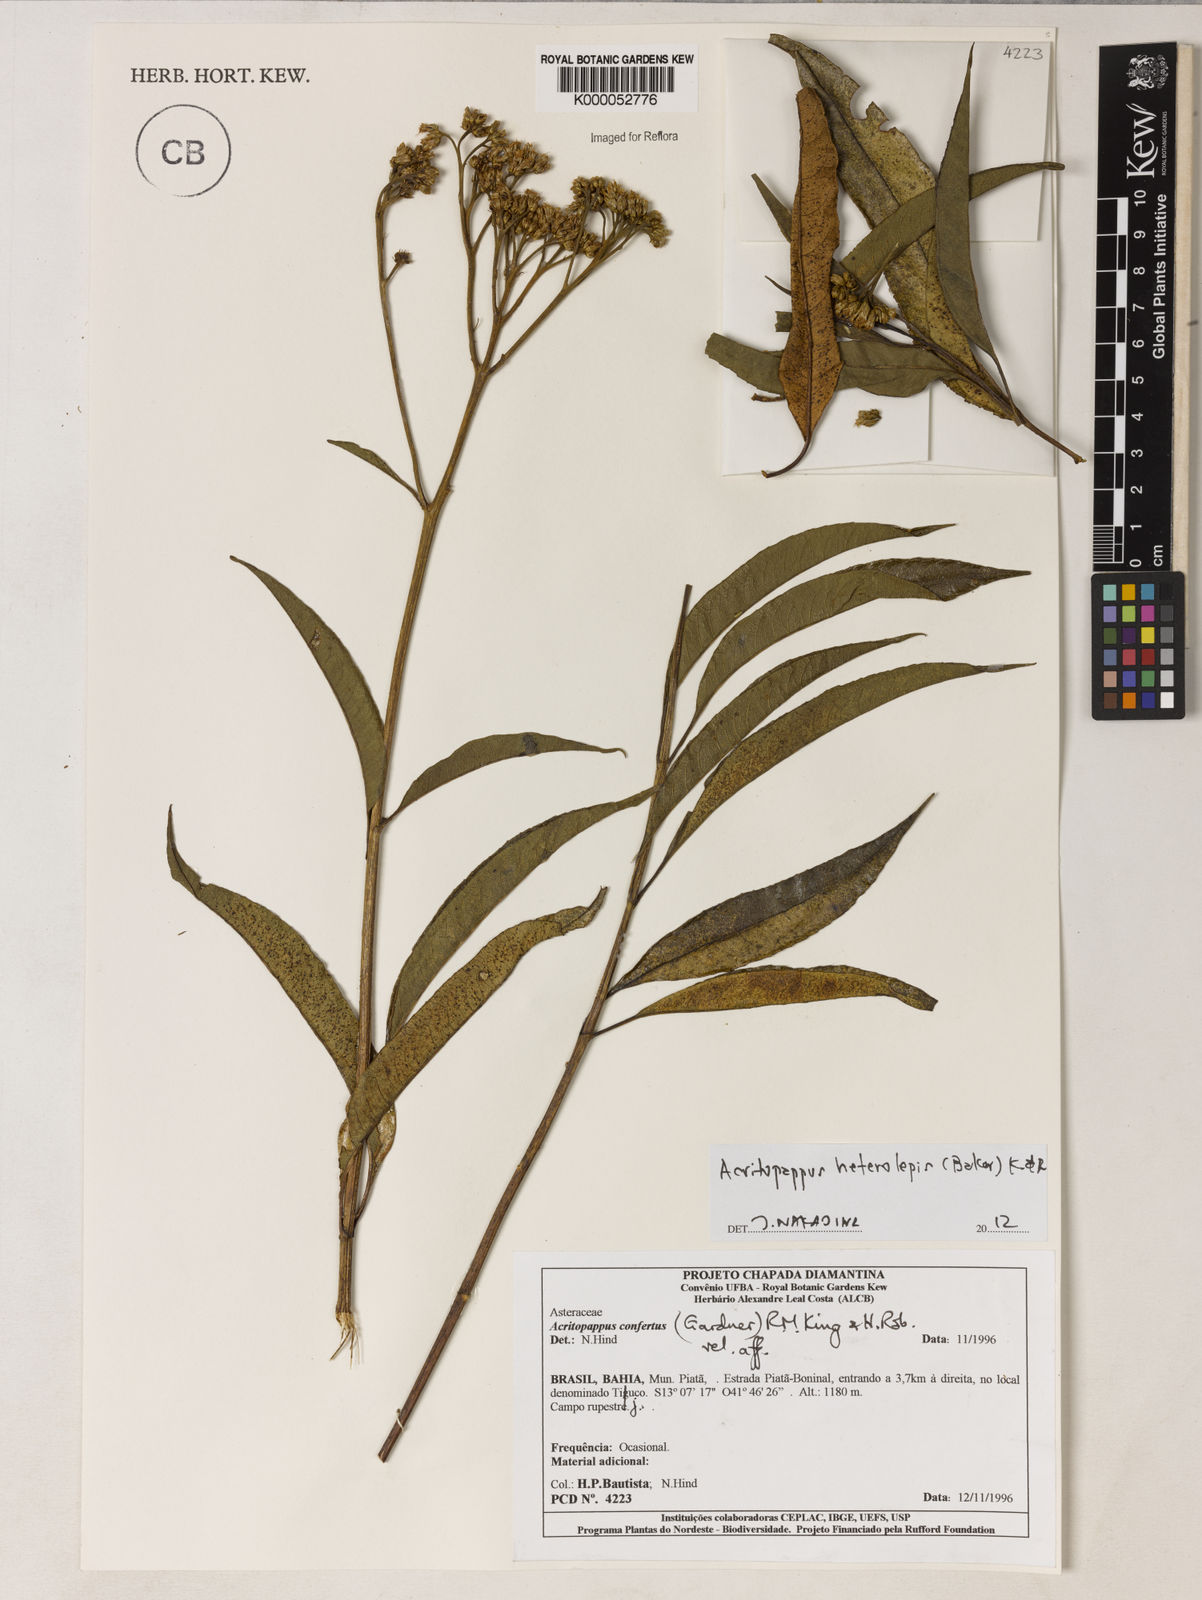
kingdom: Plantae
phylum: Tracheophyta
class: Magnoliopsida
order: Asterales
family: Asteraceae
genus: Acritopappus
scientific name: Acritopappus confertus
